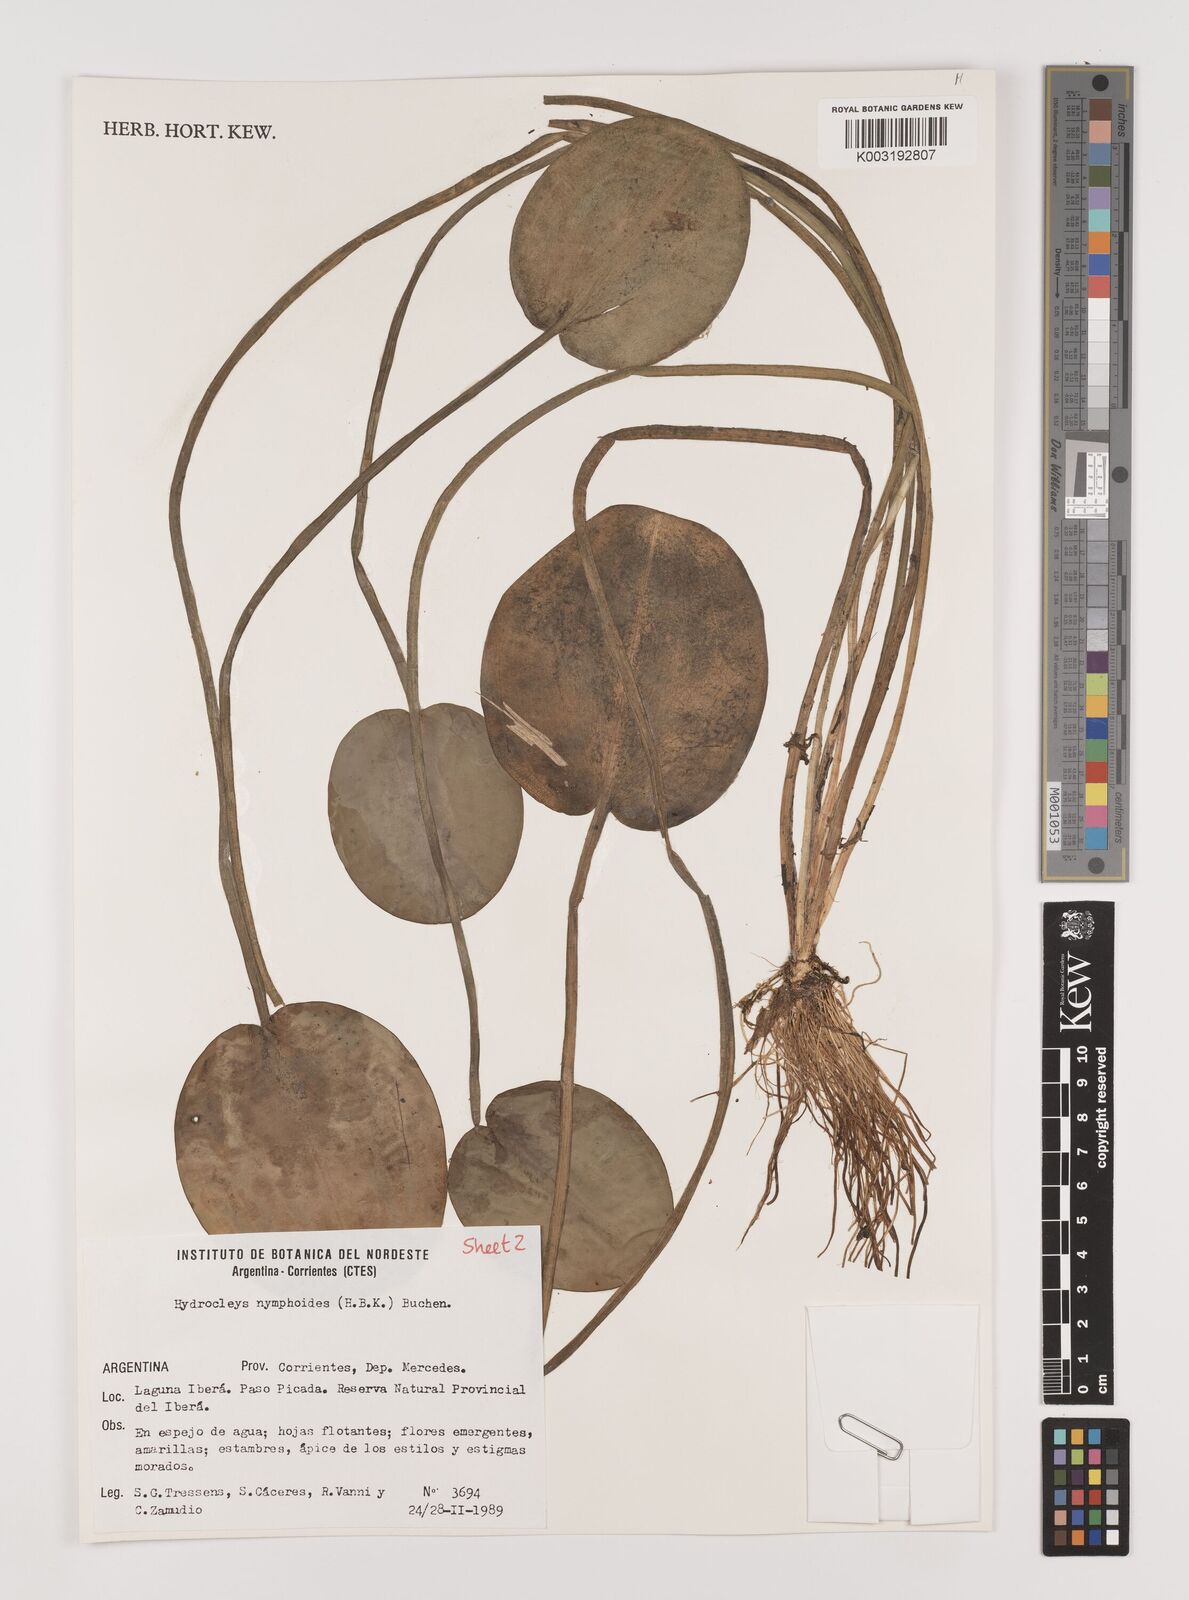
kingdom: Plantae
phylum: Tracheophyta
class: Liliopsida
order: Alismatales
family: Alismataceae
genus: Hydrocleys
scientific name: Hydrocleys nymphoides
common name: Water-poppy
